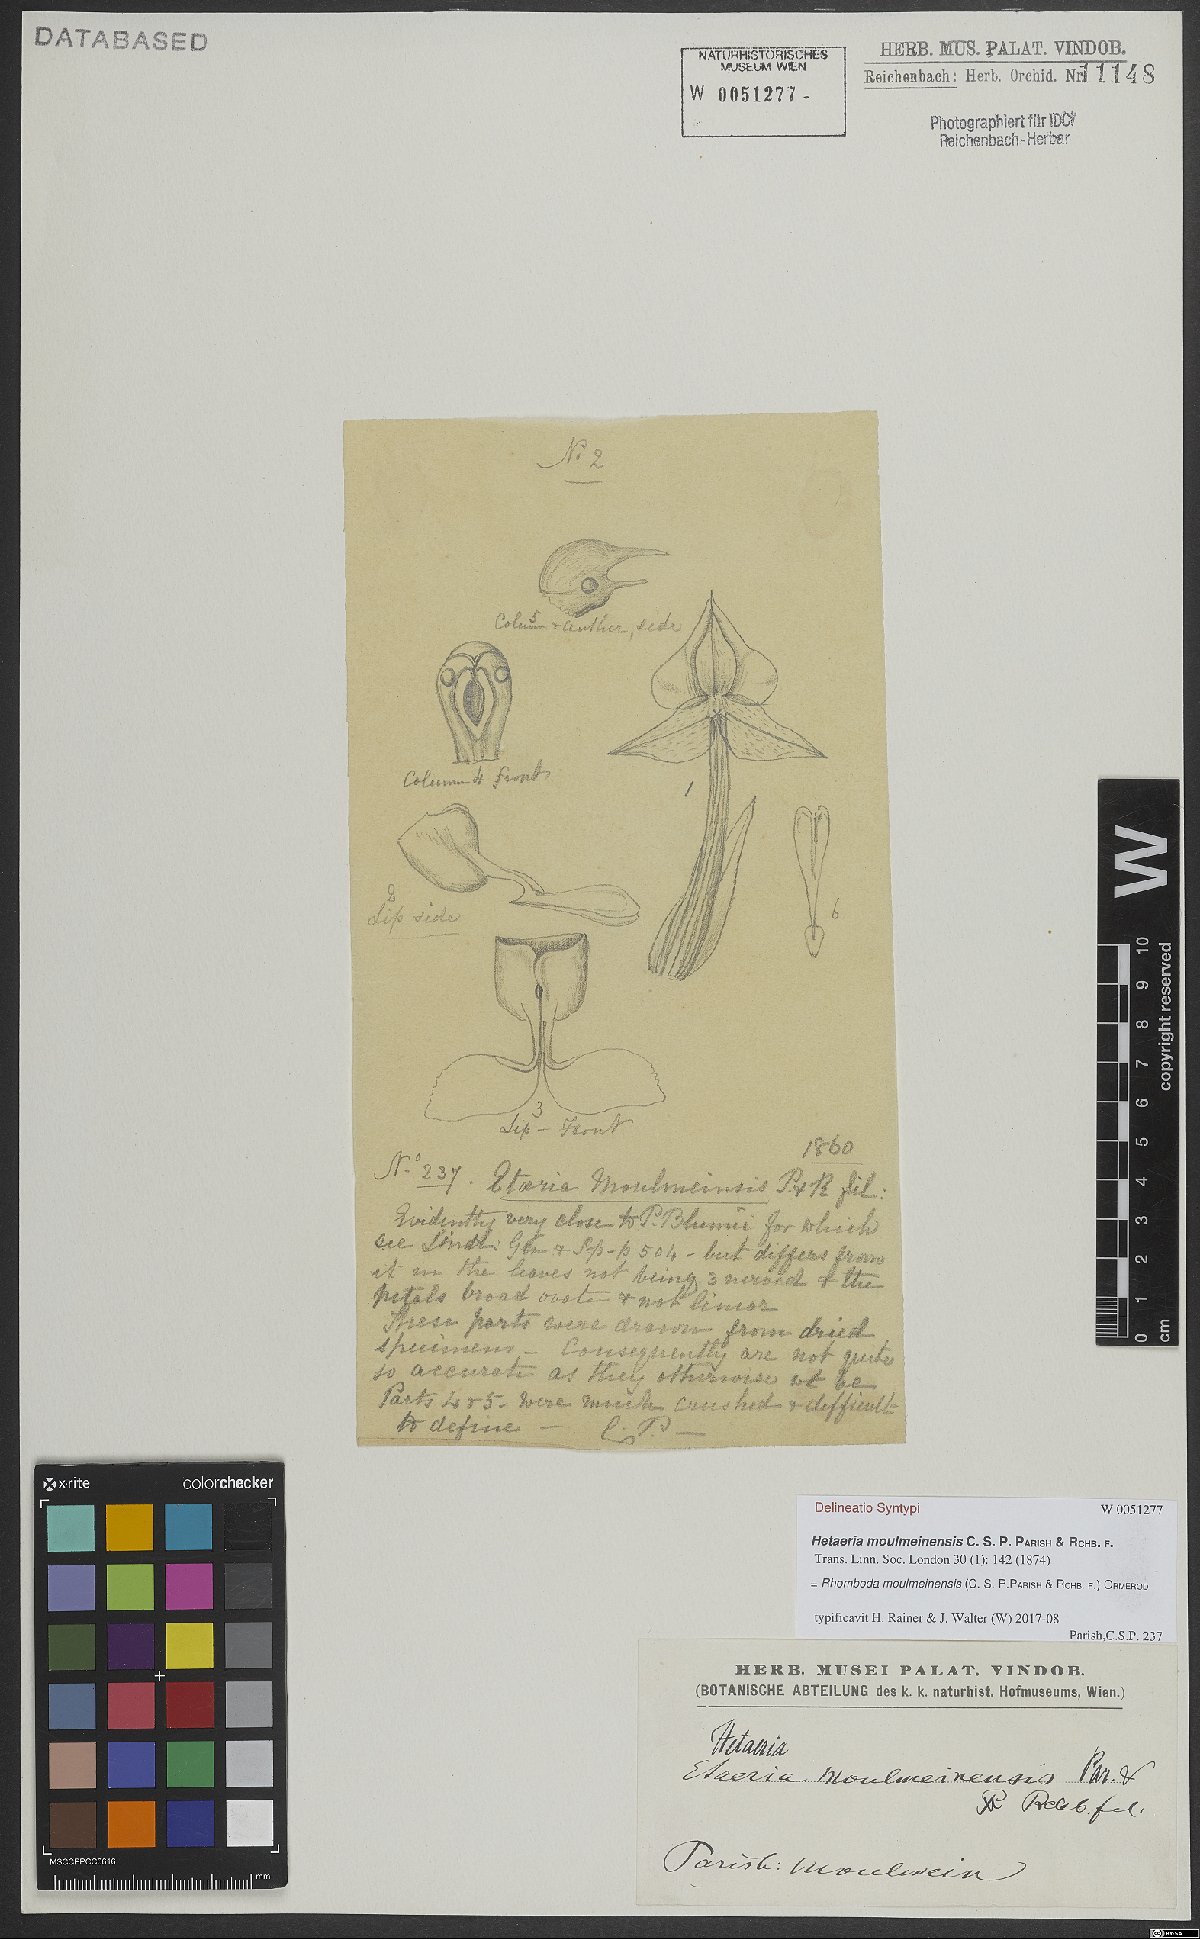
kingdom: Plantae
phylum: Tracheophyta
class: Liliopsida
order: Asparagales
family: Orchidaceae
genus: Rhomboda
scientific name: Rhomboda moulmeinensis
